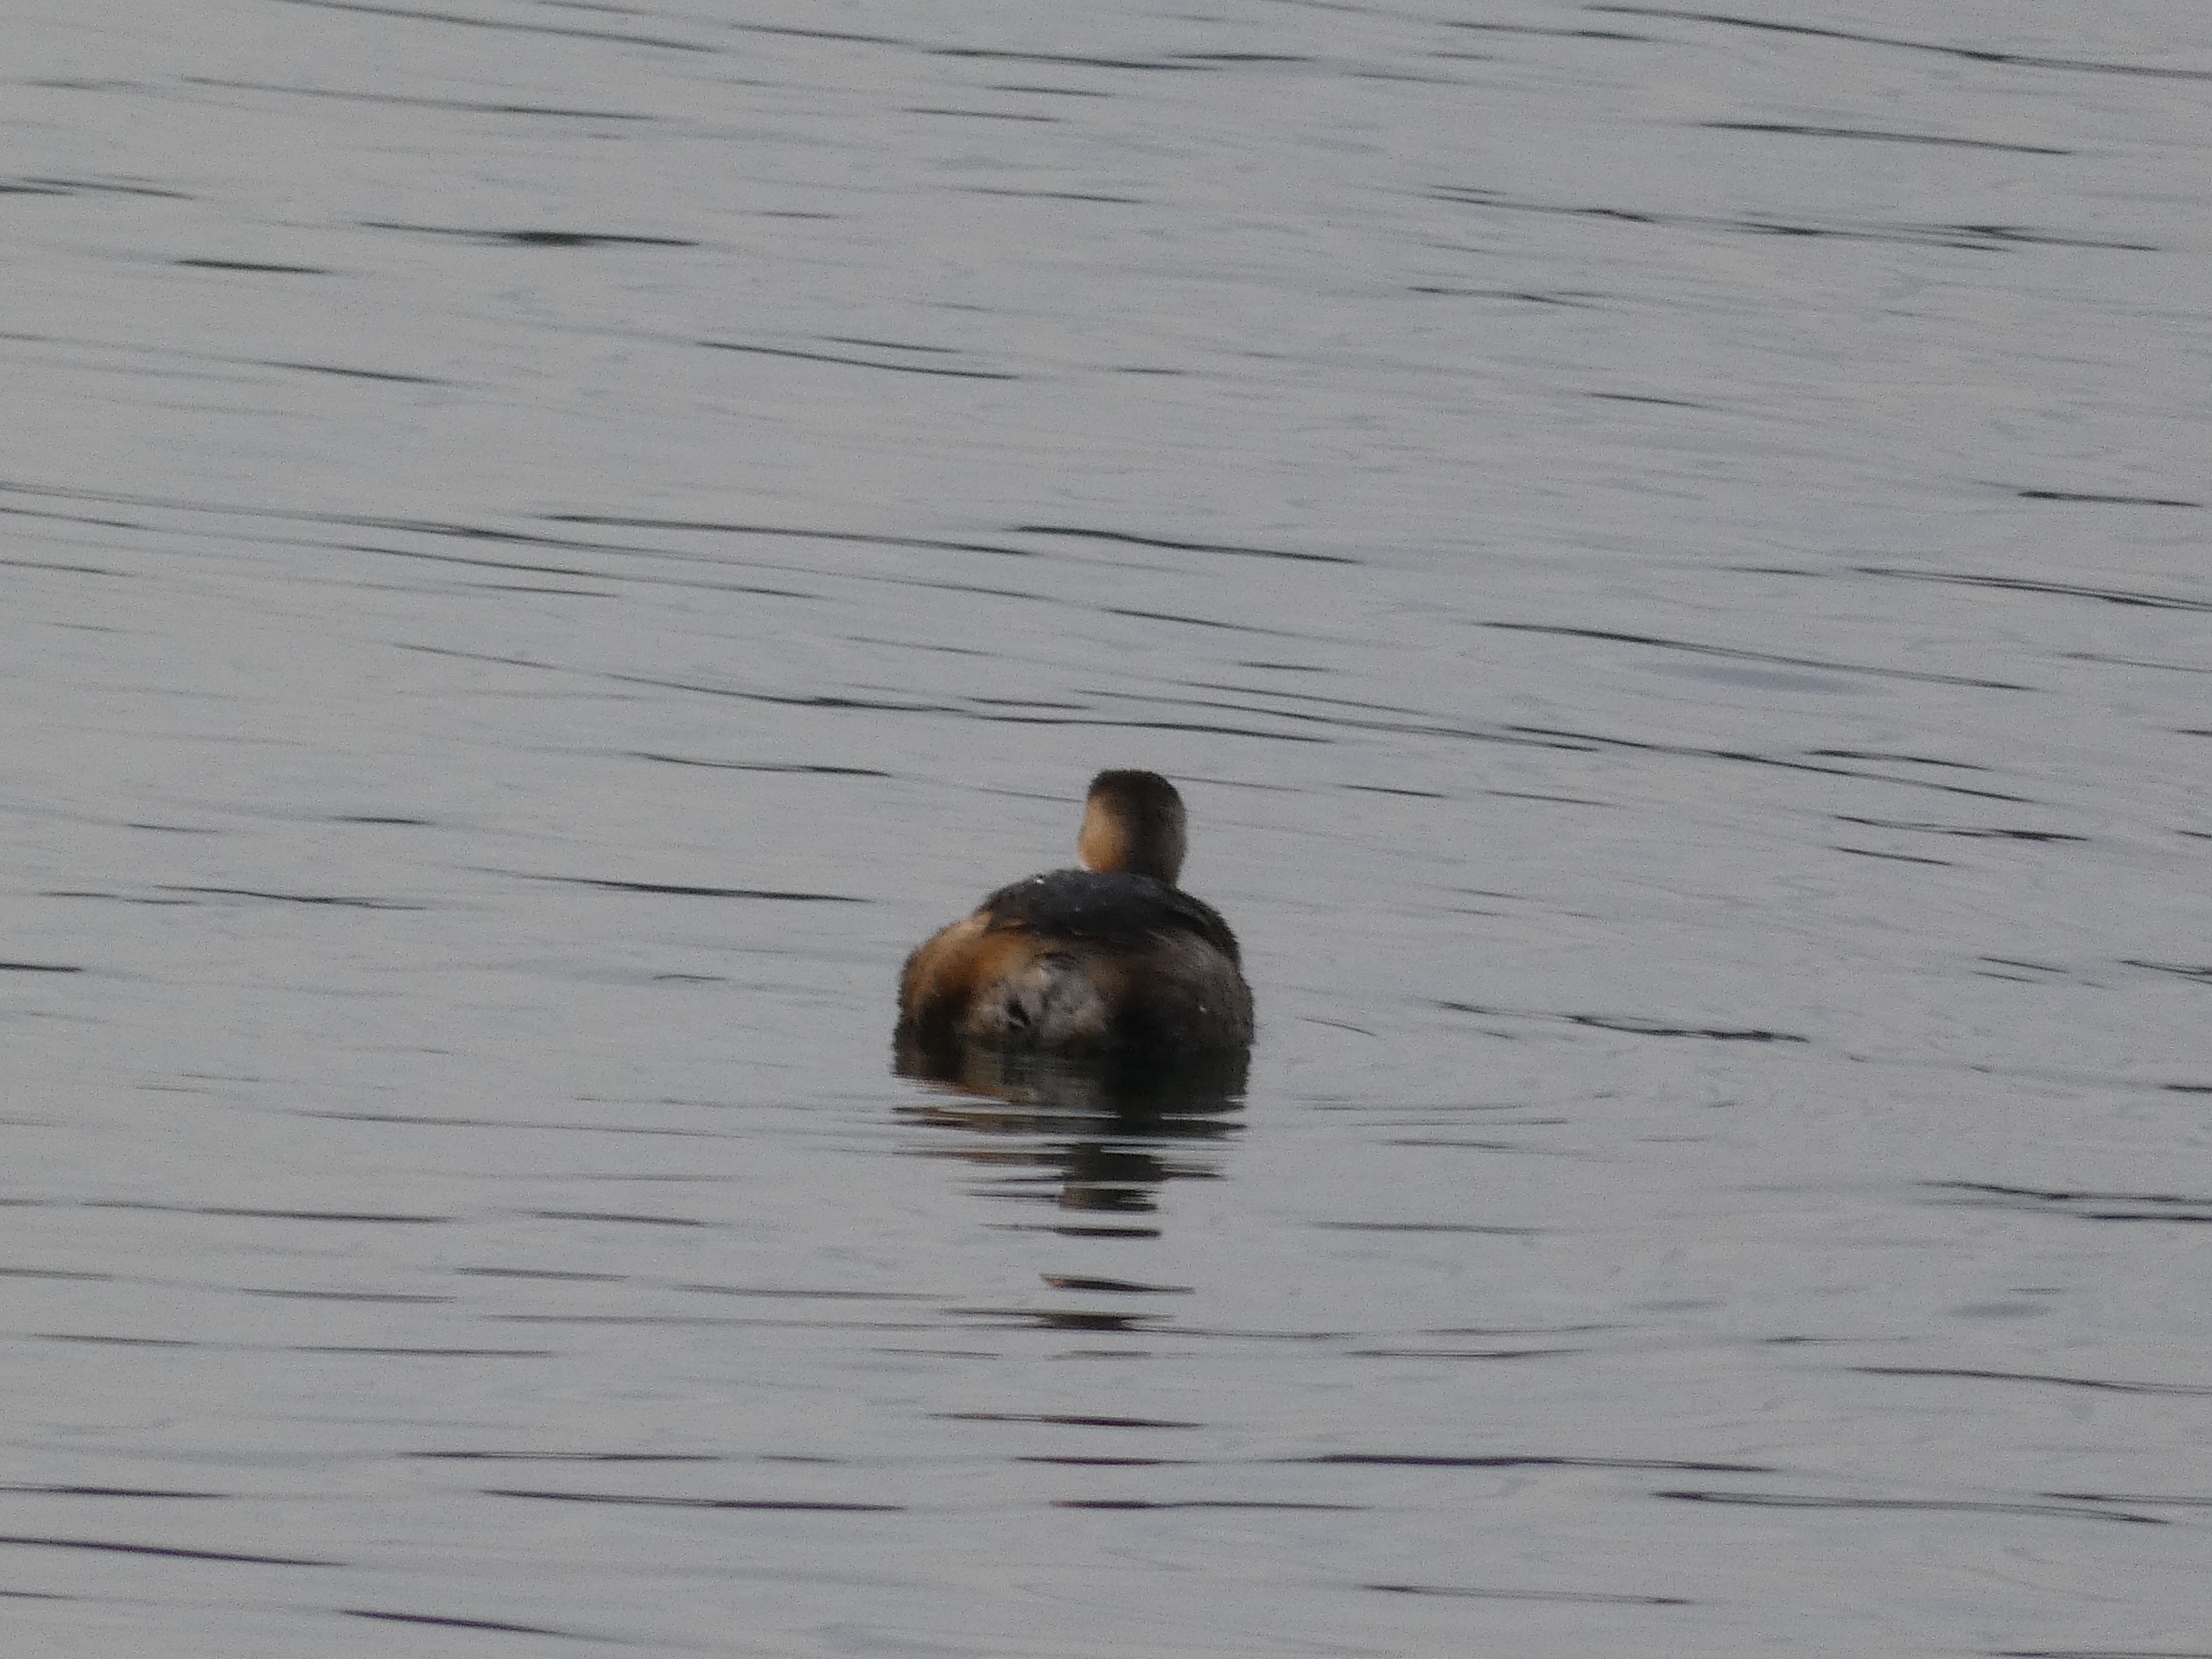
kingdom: Animalia
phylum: Chordata
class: Aves
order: Podicipediformes
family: Podicipedidae
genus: Tachybaptus
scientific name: Tachybaptus ruficollis
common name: Lille lappedykker
